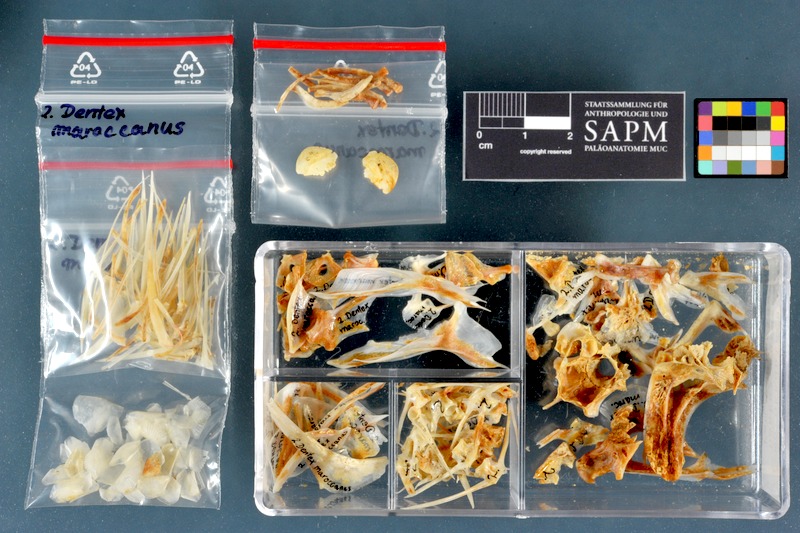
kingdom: Animalia
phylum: Chordata
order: Perciformes
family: Sparidae
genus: Dentex
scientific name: Dentex maroccanus
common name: Morocco dentex
